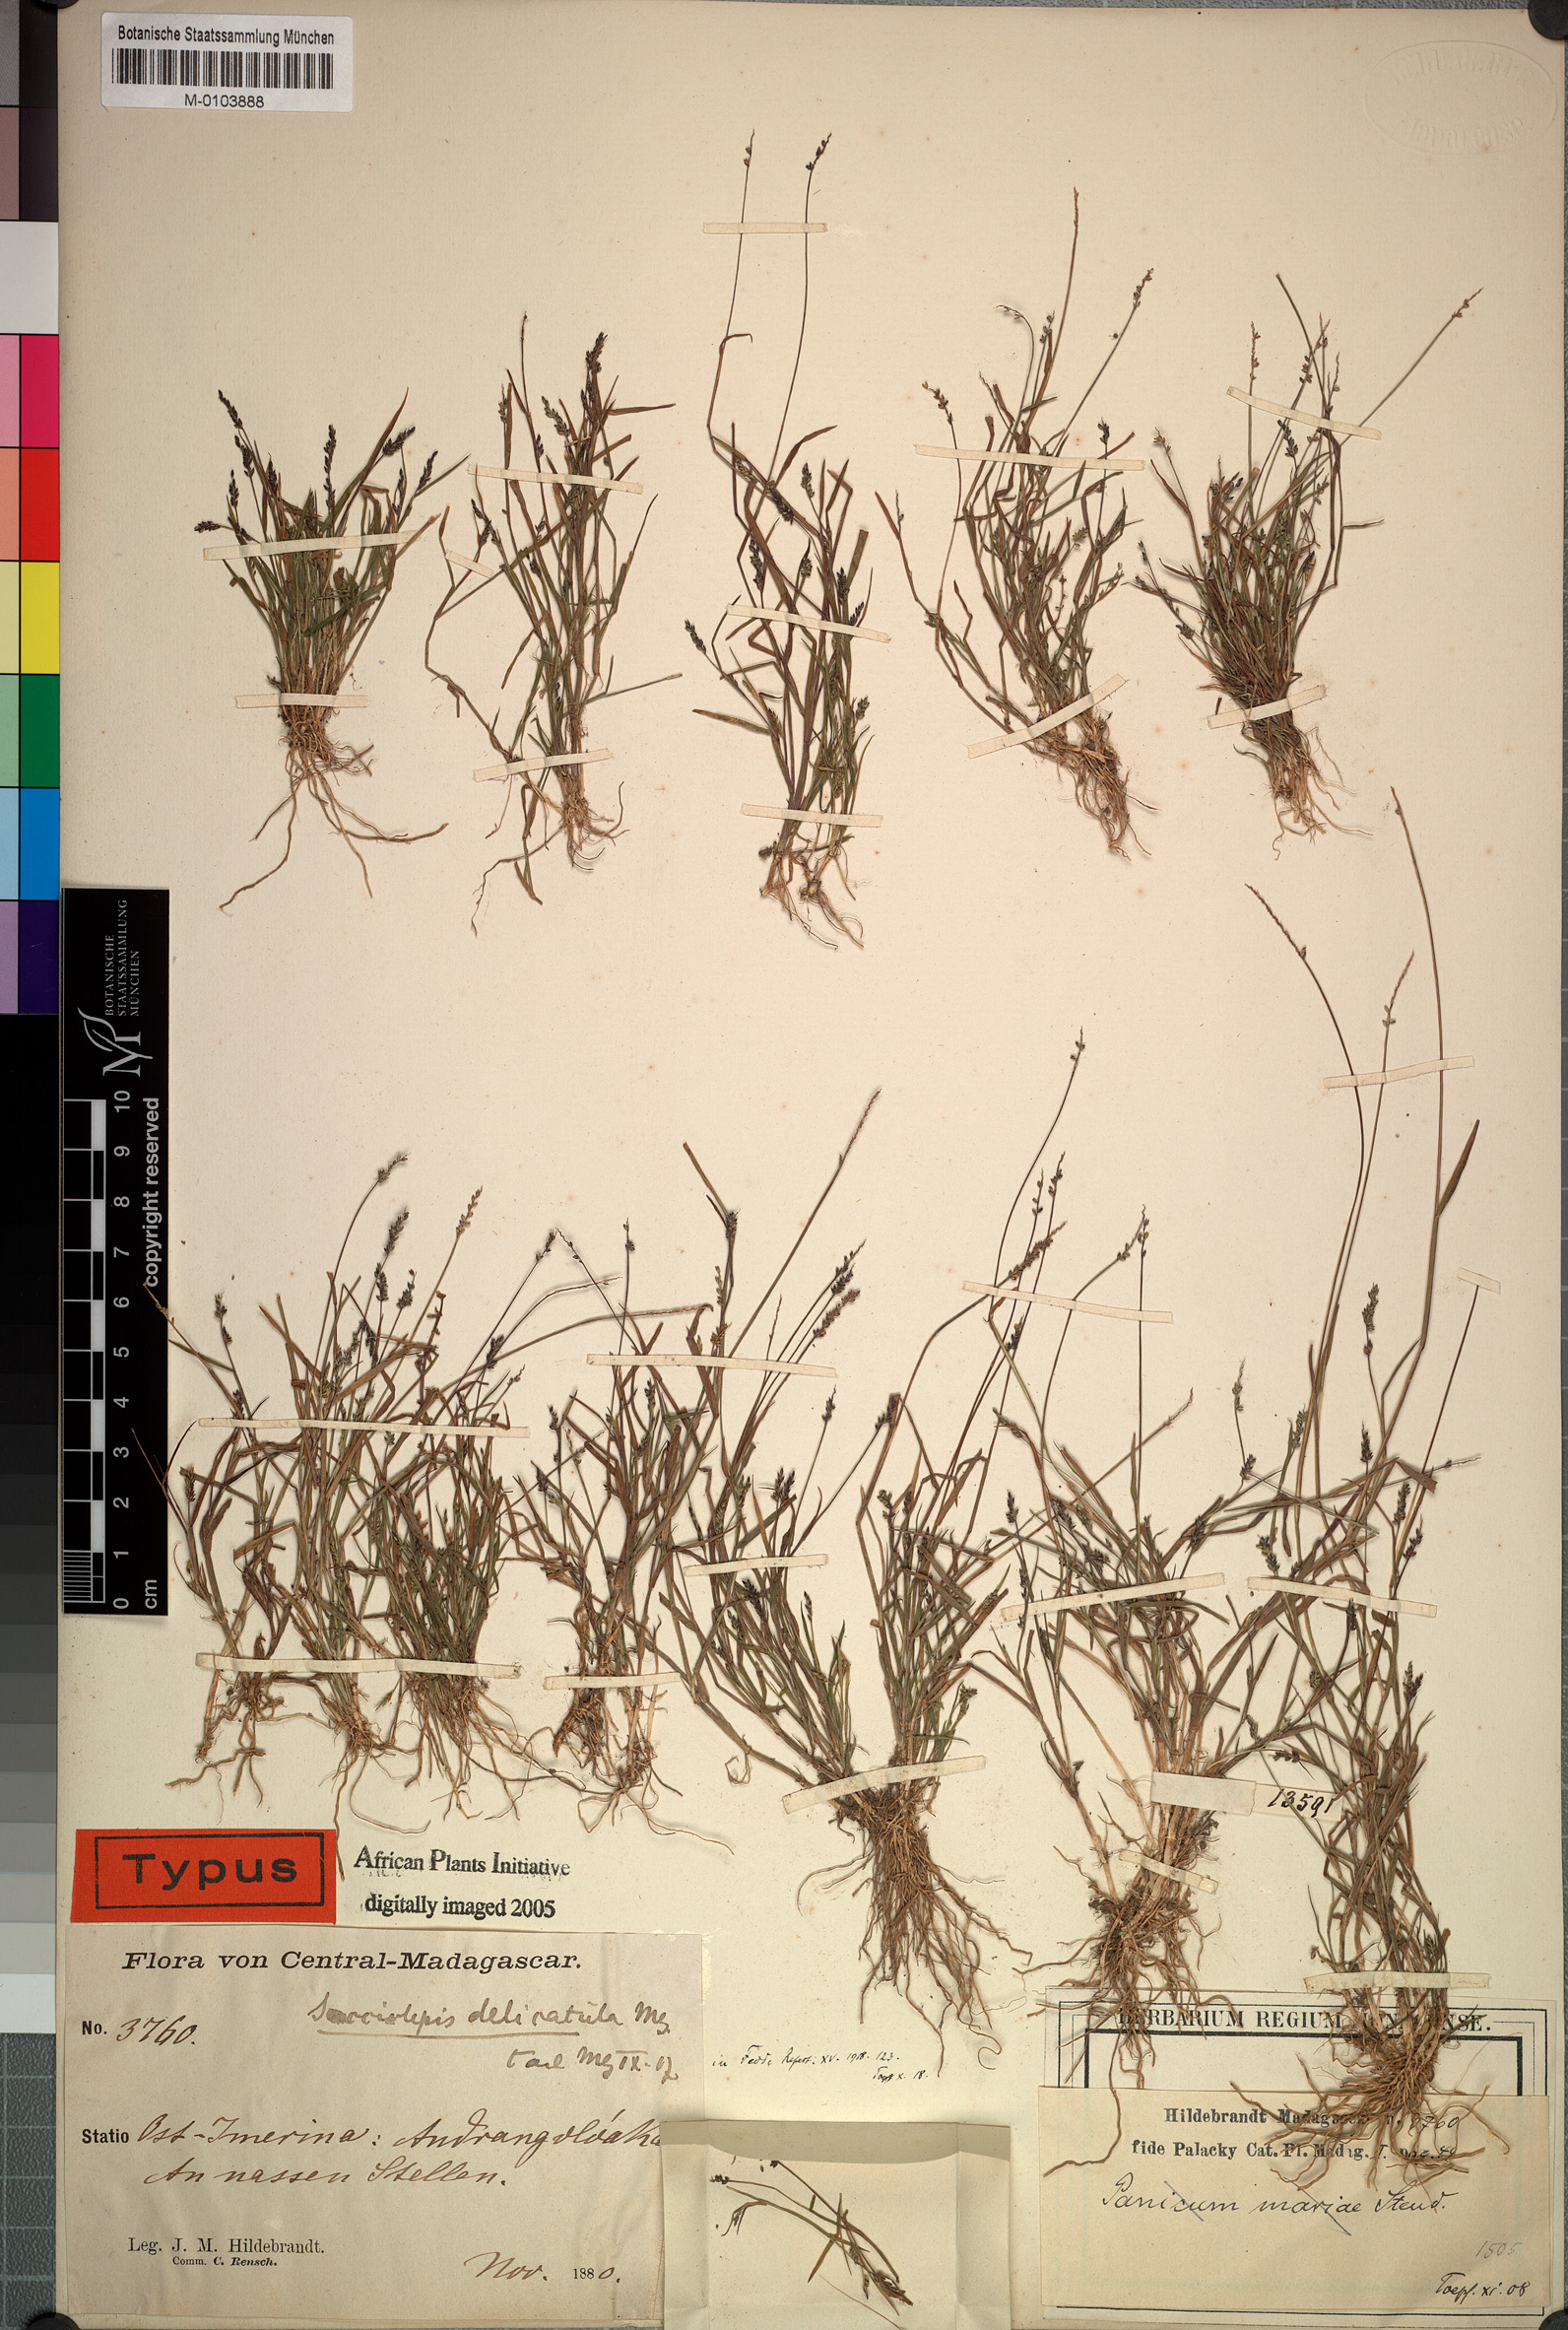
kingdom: Plantae
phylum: Tracheophyta
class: Liliopsida
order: Poales
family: Poaceae
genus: Sacciolepis
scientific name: Sacciolepis
